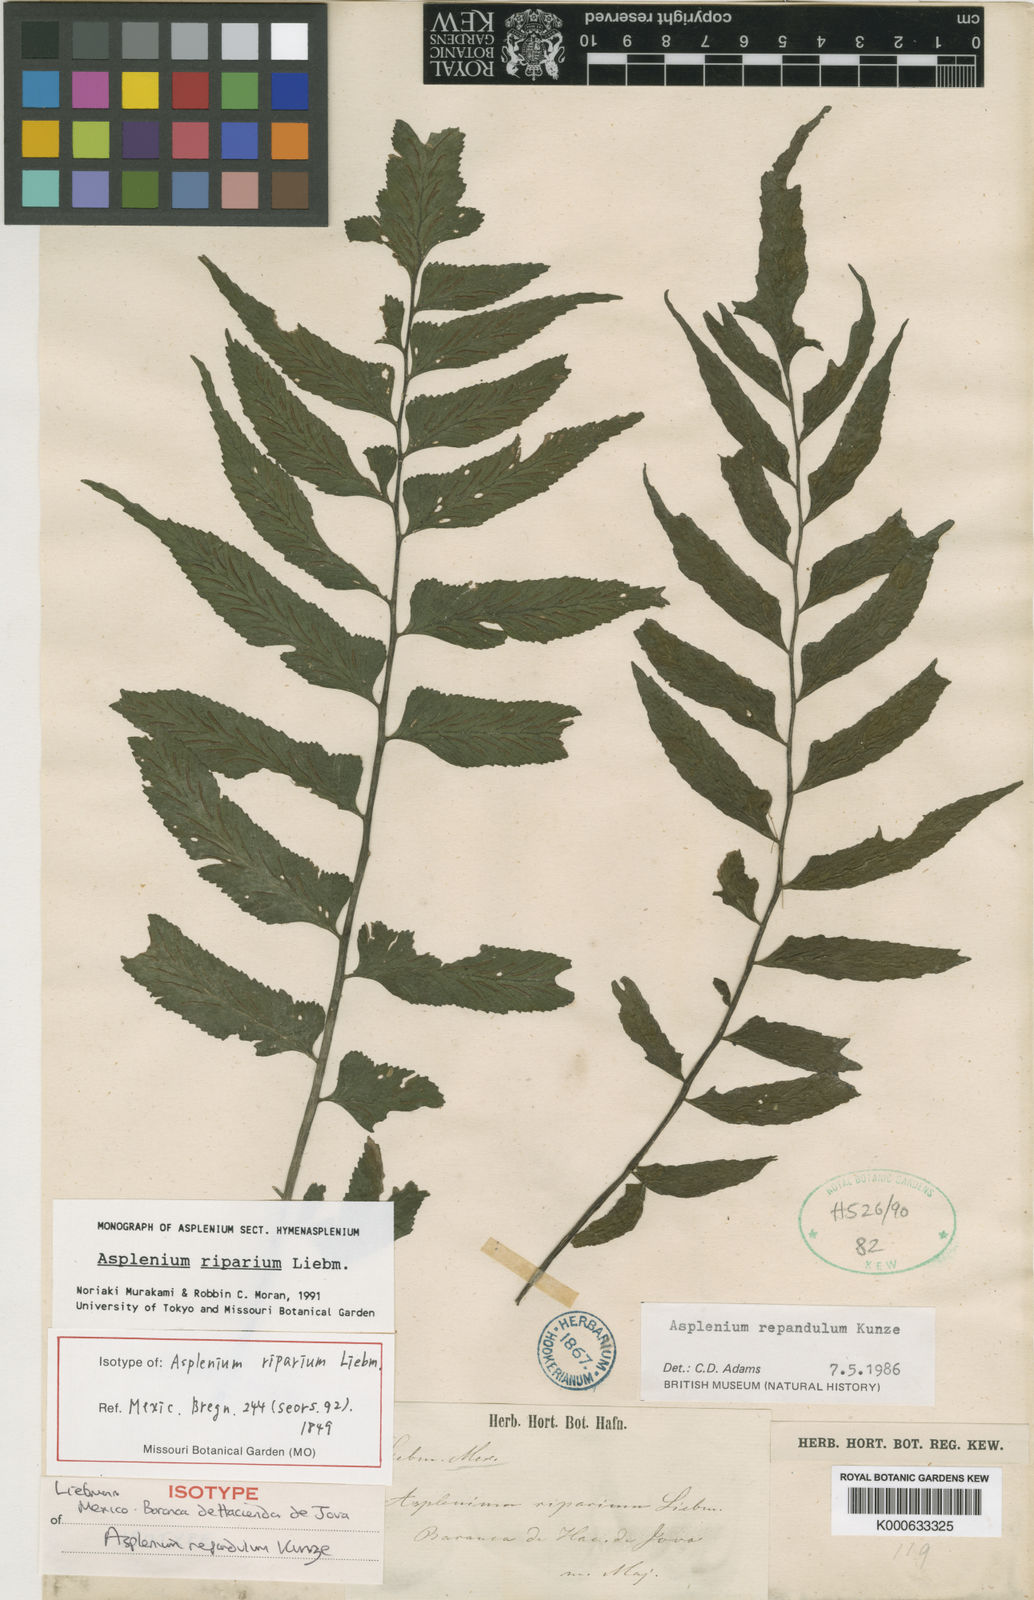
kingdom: Plantae
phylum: Tracheophyta
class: Polypodiopsida
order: Polypodiales
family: Aspleniaceae
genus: Hymenasplenium
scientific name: Hymenasplenium riparium
